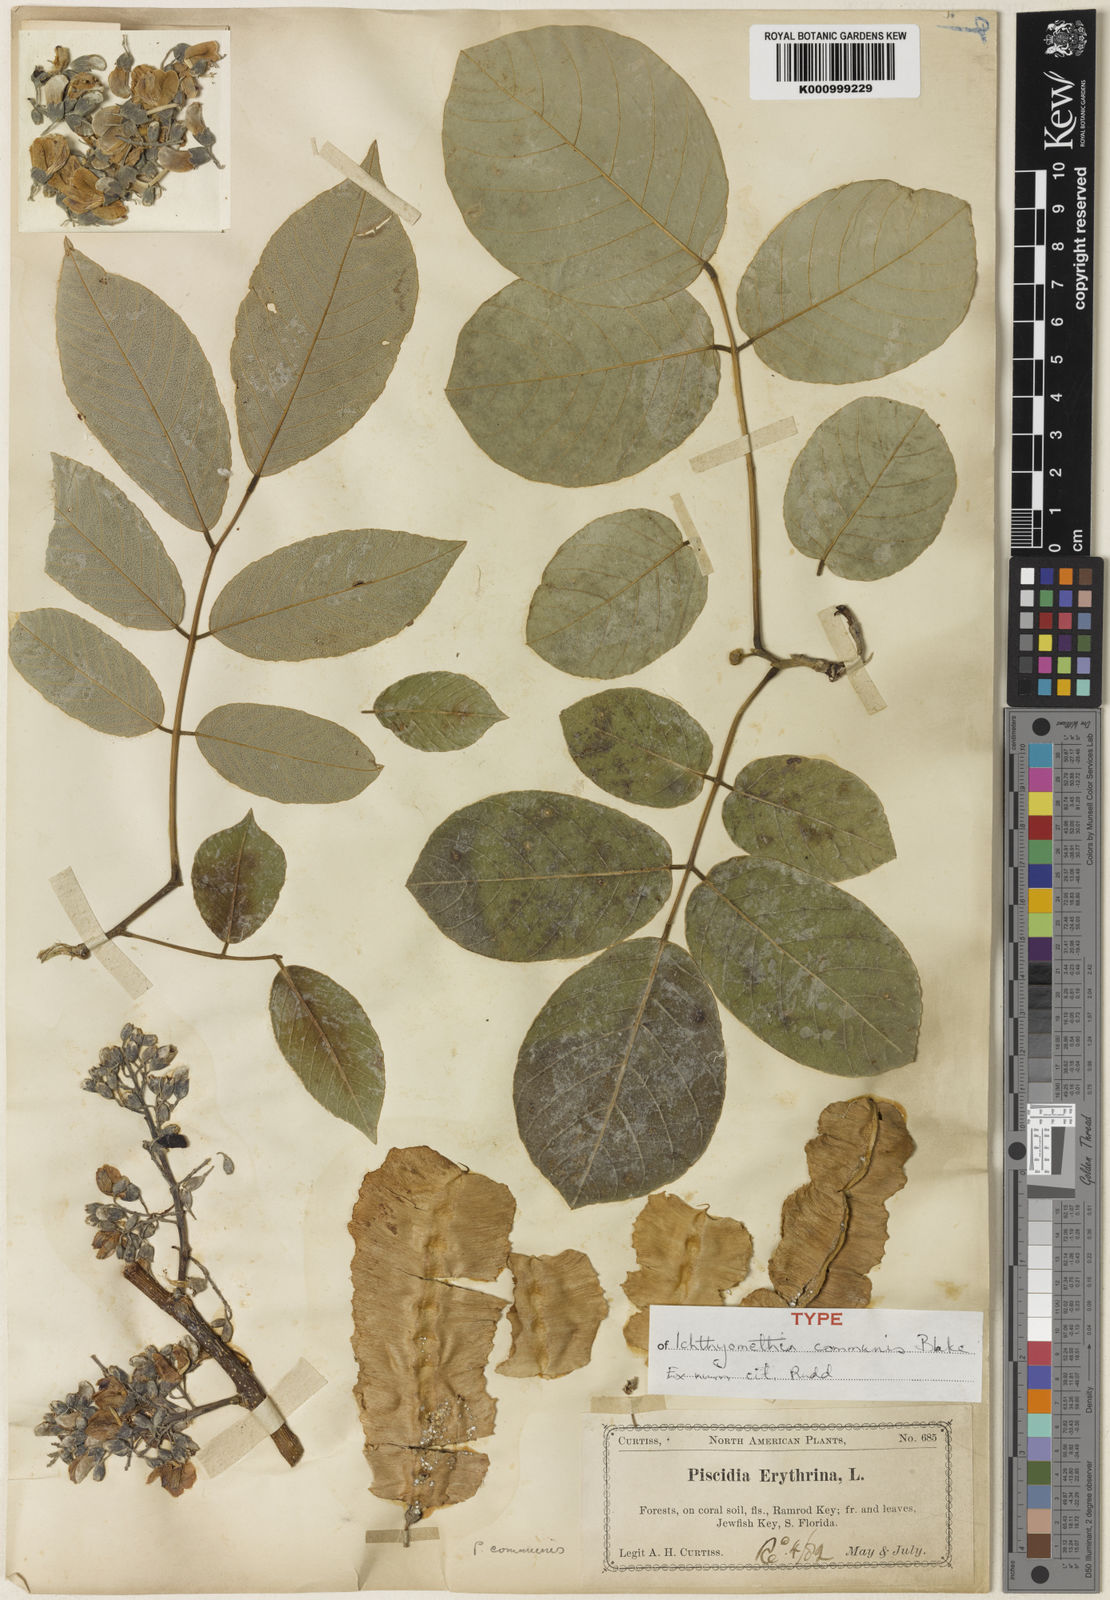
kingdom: Plantae
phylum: Tracheophyta
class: Magnoliopsida
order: Fabales
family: Fabaceae
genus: Piscidia
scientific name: Piscidia piscipula
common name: Florida fishpoison tree
